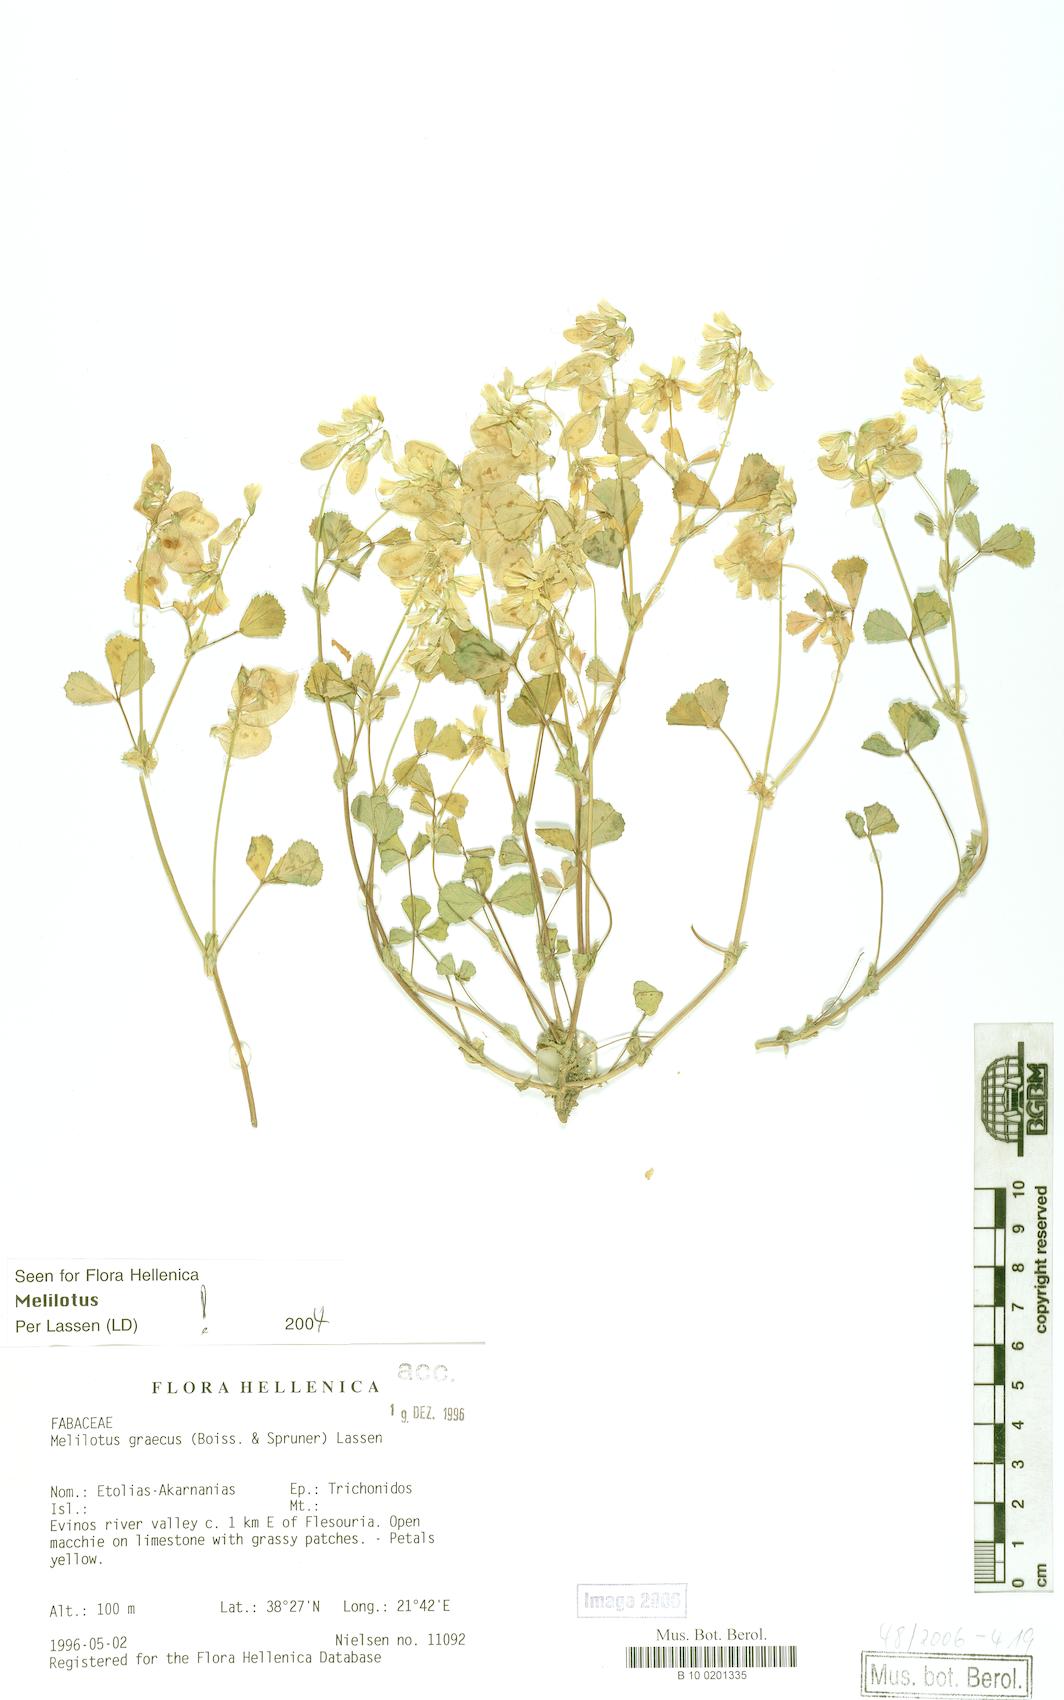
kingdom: Plantae
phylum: Tracheophyta
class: Magnoliopsida
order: Fabales
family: Fabaceae
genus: Trigonella
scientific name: Trigonella graeca
